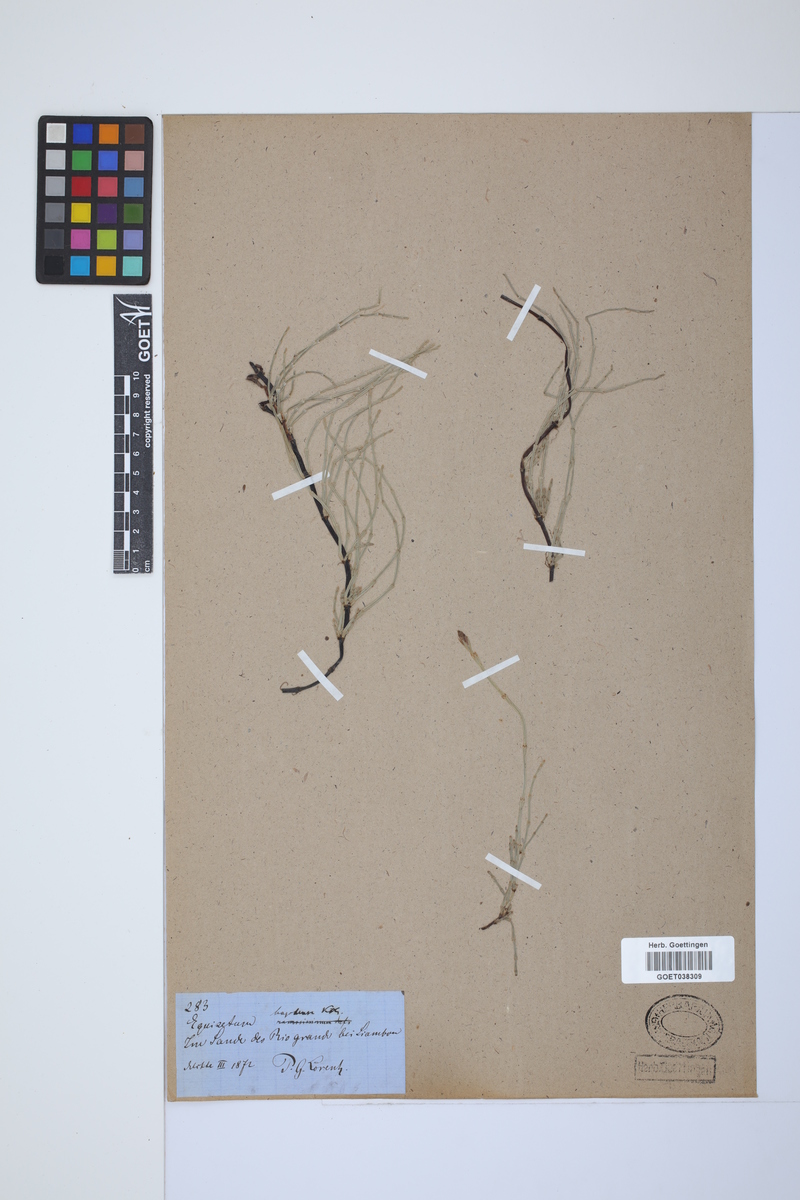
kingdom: Plantae
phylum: Tracheophyta
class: Polypodiopsida
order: Equisetales
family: Equisetaceae
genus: Equisetum
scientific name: Equisetum bogotense
